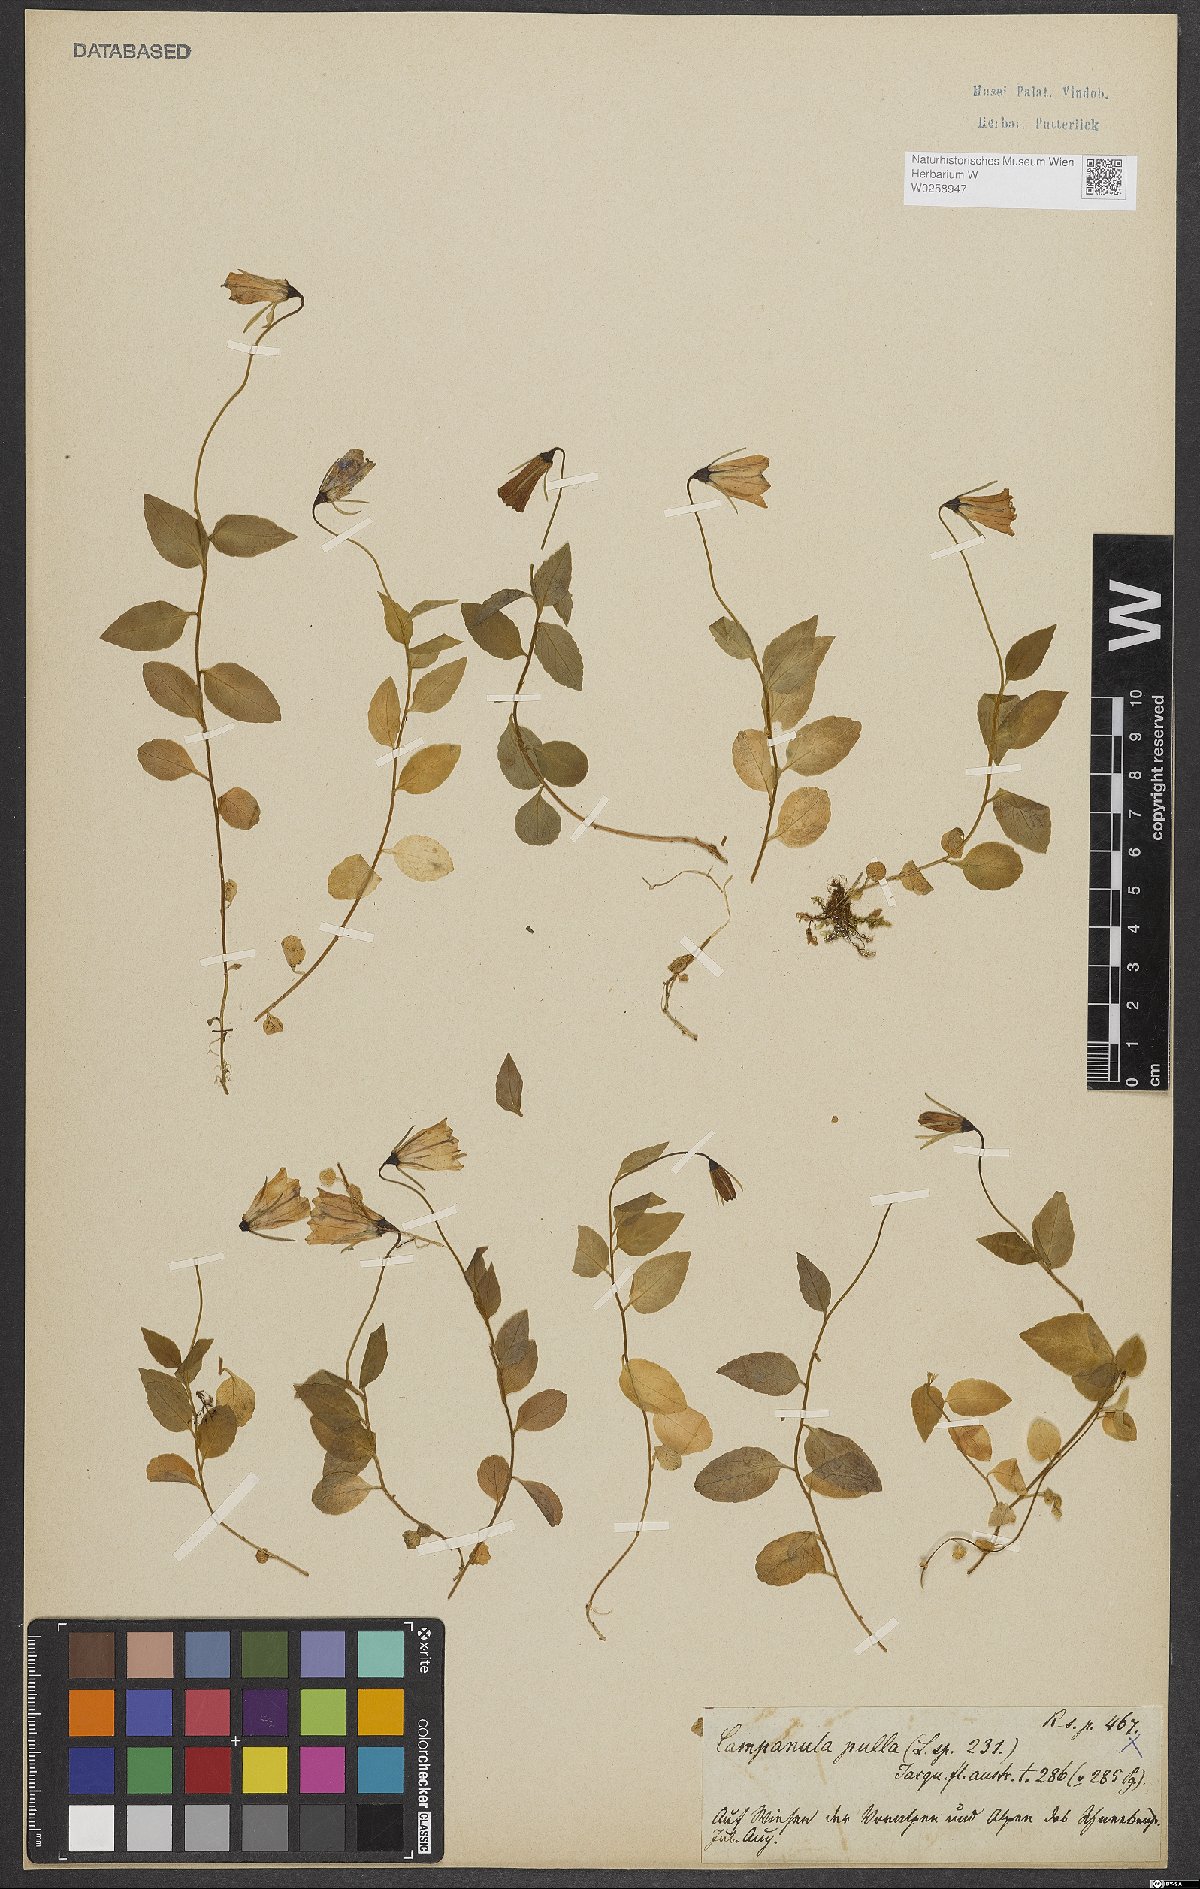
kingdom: Plantae
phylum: Tracheophyta
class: Magnoliopsida
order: Asterales
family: Campanulaceae
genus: Campanula
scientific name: Campanula pulla
